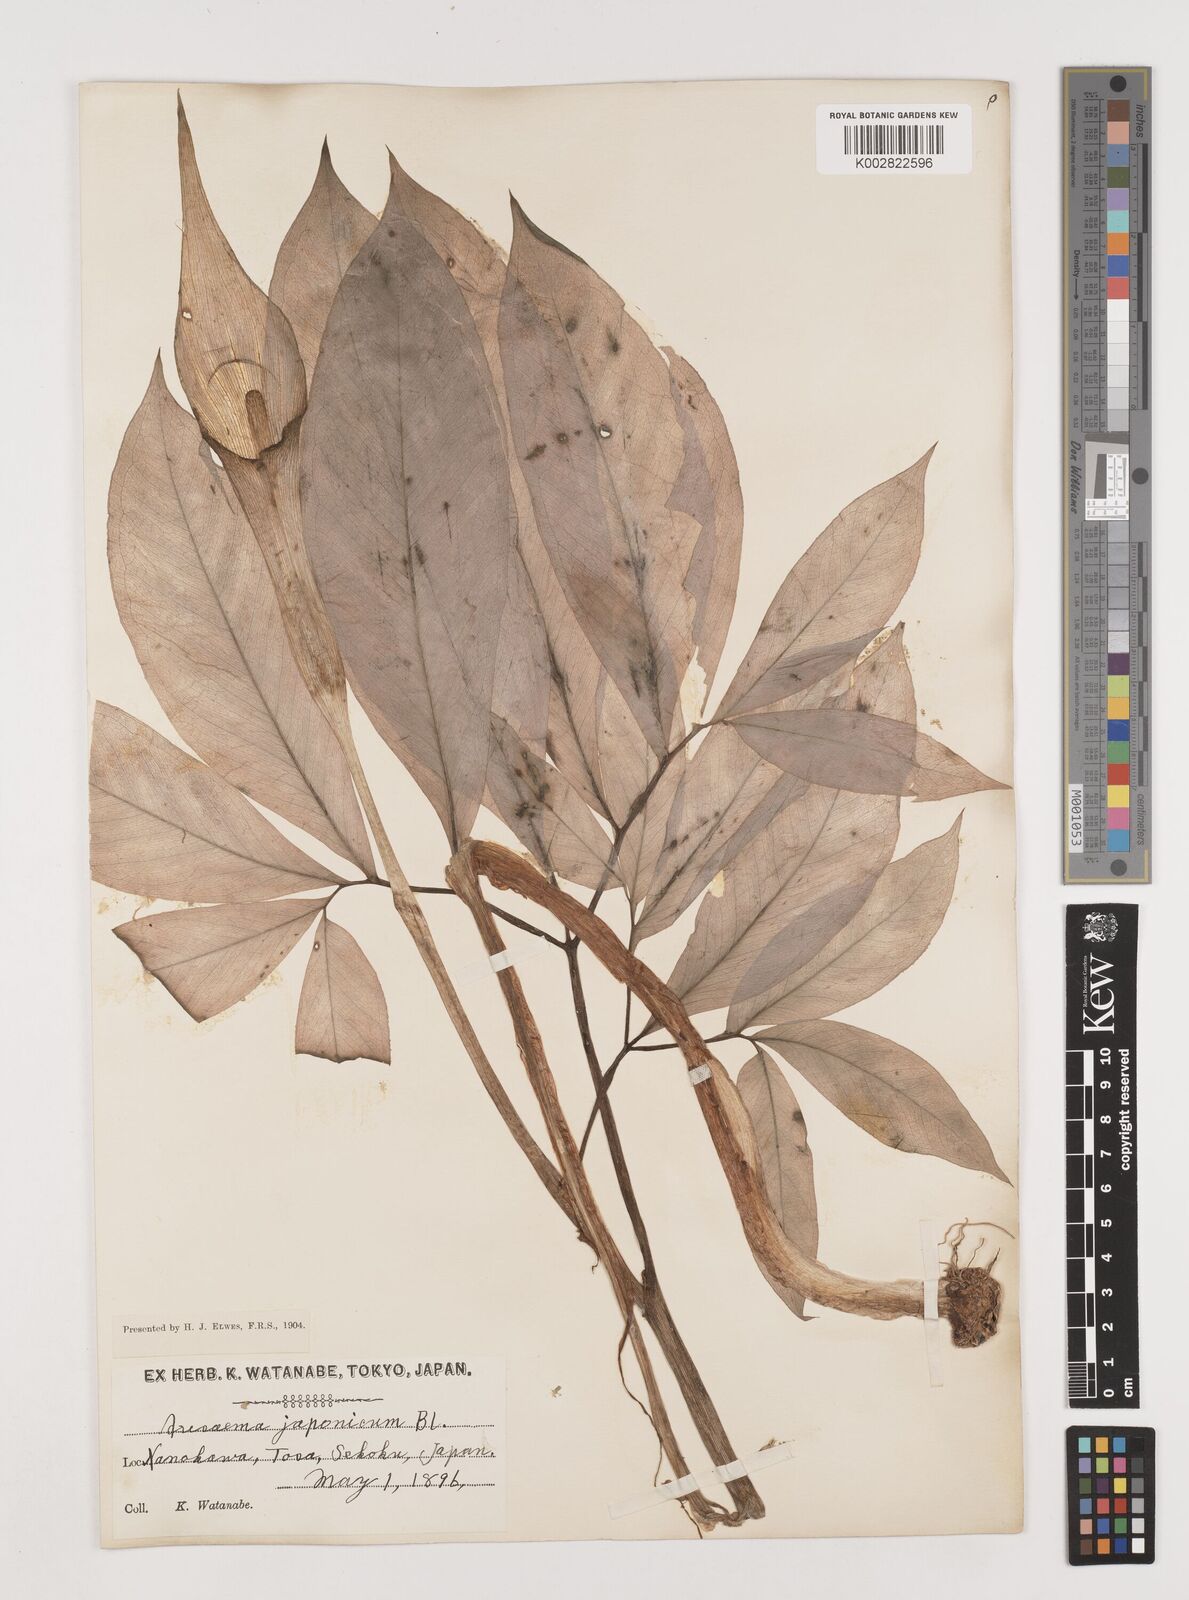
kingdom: Plantae
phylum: Tracheophyta
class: Liliopsida
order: Alismatales
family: Araceae
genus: Arisaema
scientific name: Arisaema serratum
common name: Japanese arisaema
